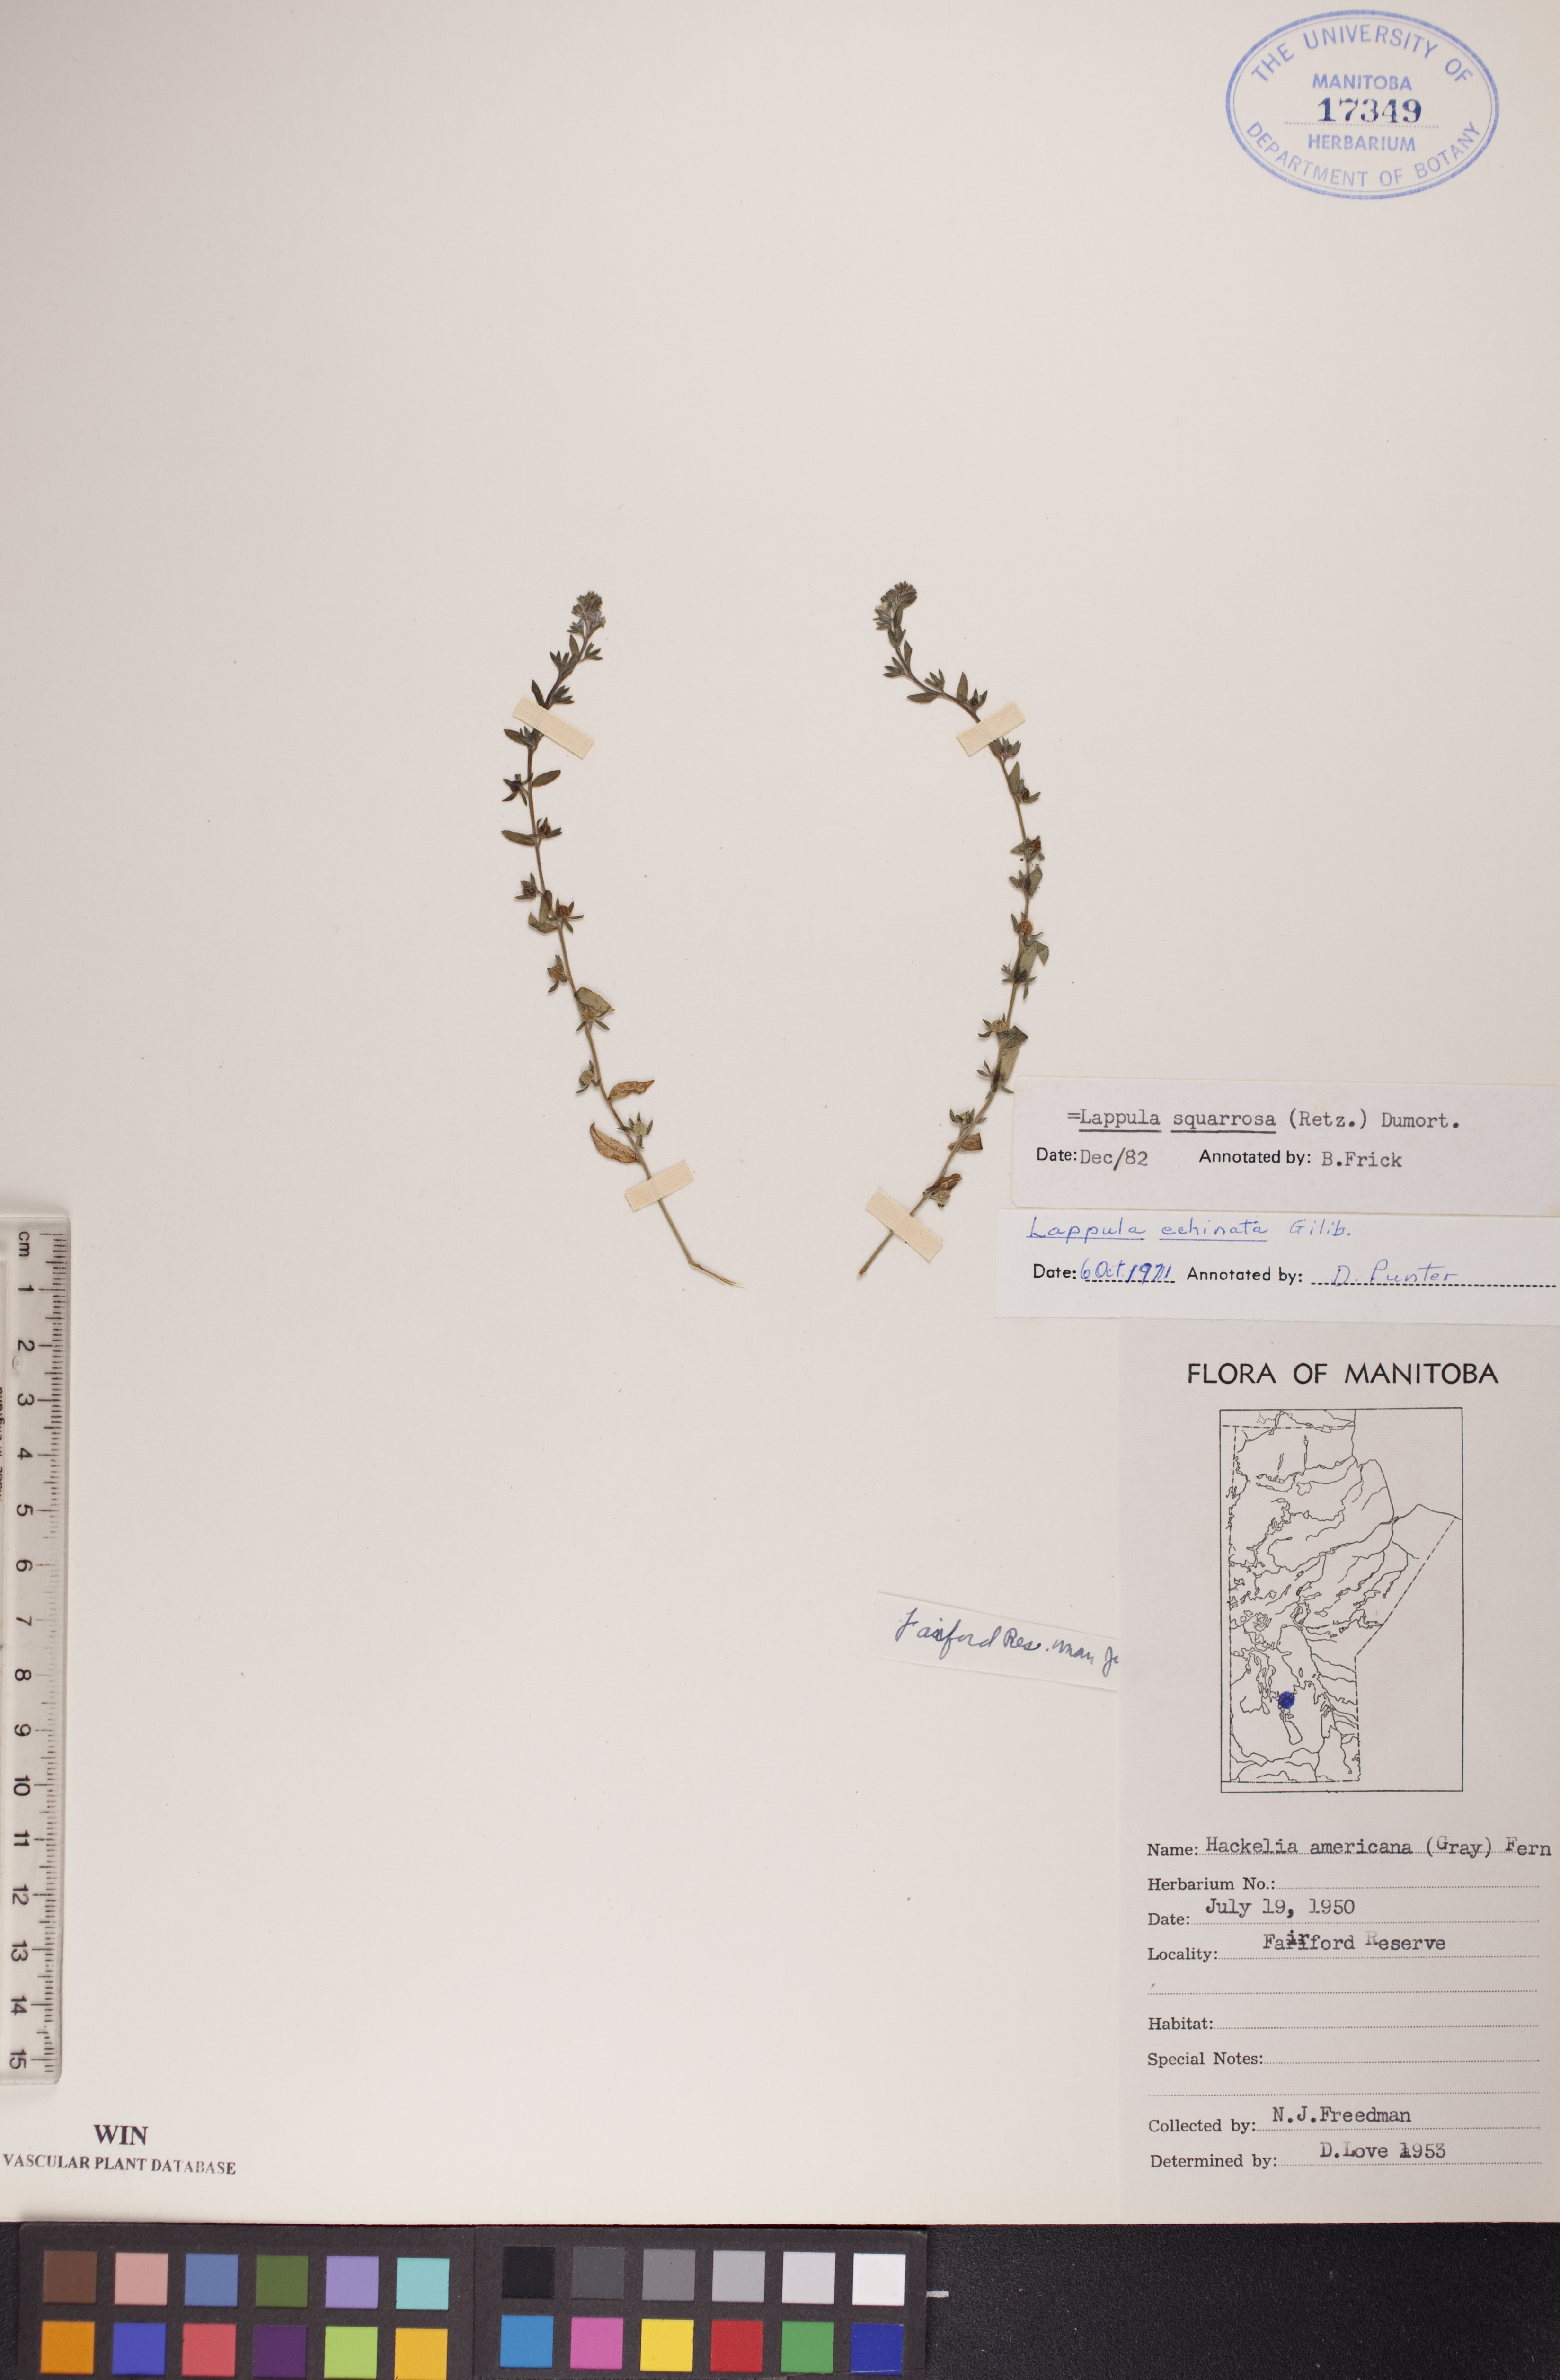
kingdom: Plantae
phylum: Tracheophyta
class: Magnoliopsida
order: Boraginales
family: Boraginaceae
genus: Lappula
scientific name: Lappula squarrosa
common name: European stickseed
